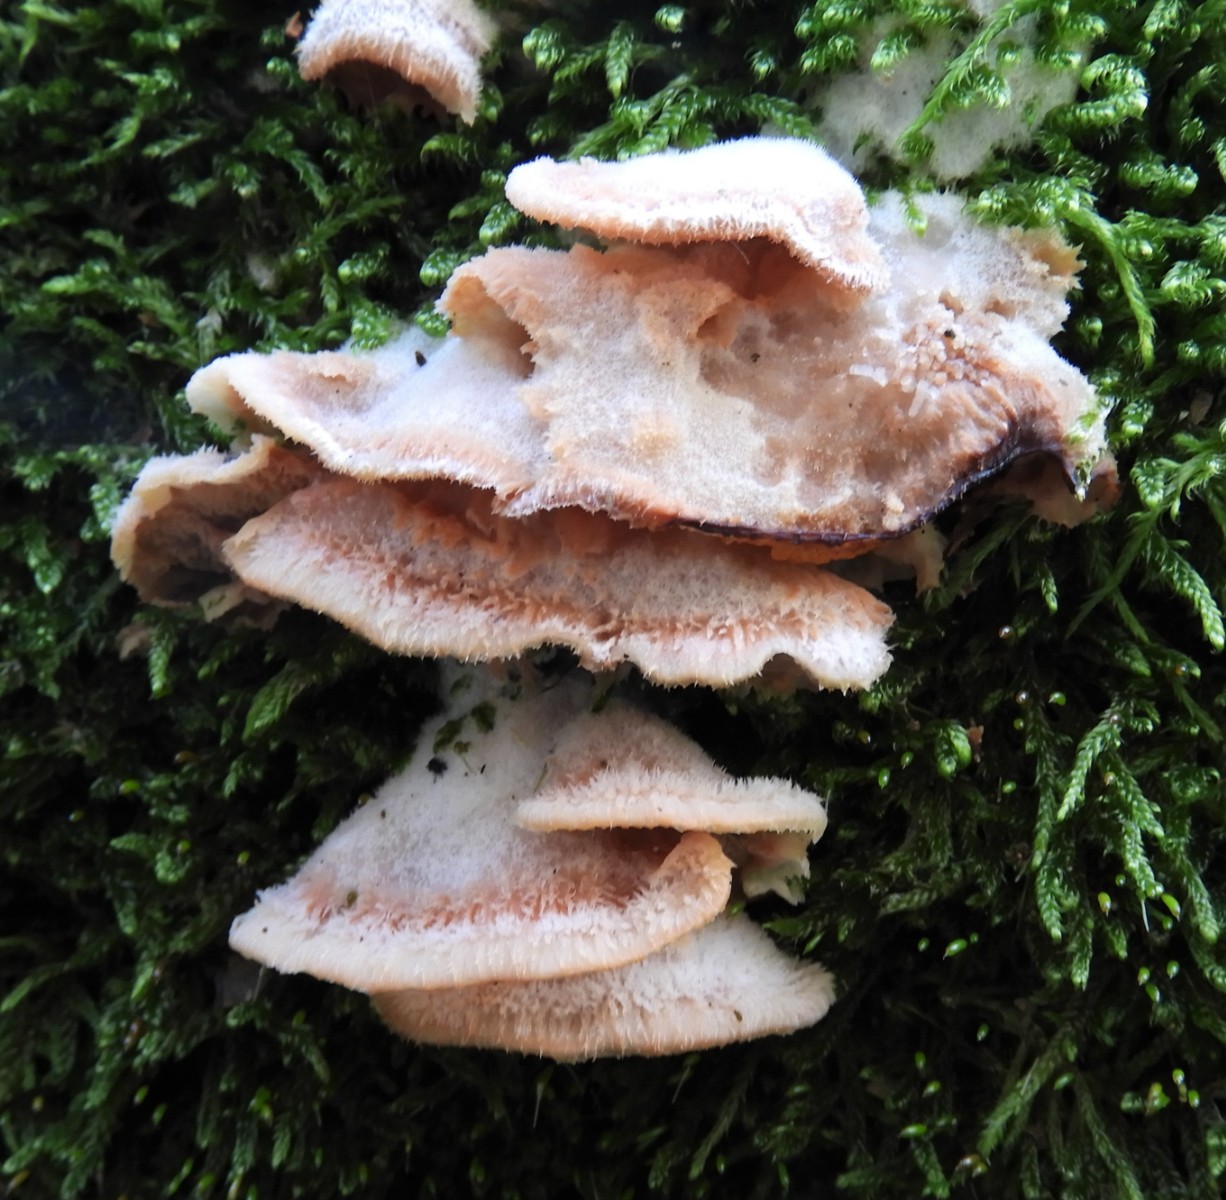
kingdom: Fungi
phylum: Basidiomycota
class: Agaricomycetes
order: Polyporales
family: Meruliaceae
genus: Phlebia
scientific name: Phlebia tremellosa
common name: bævrende åresvamp
